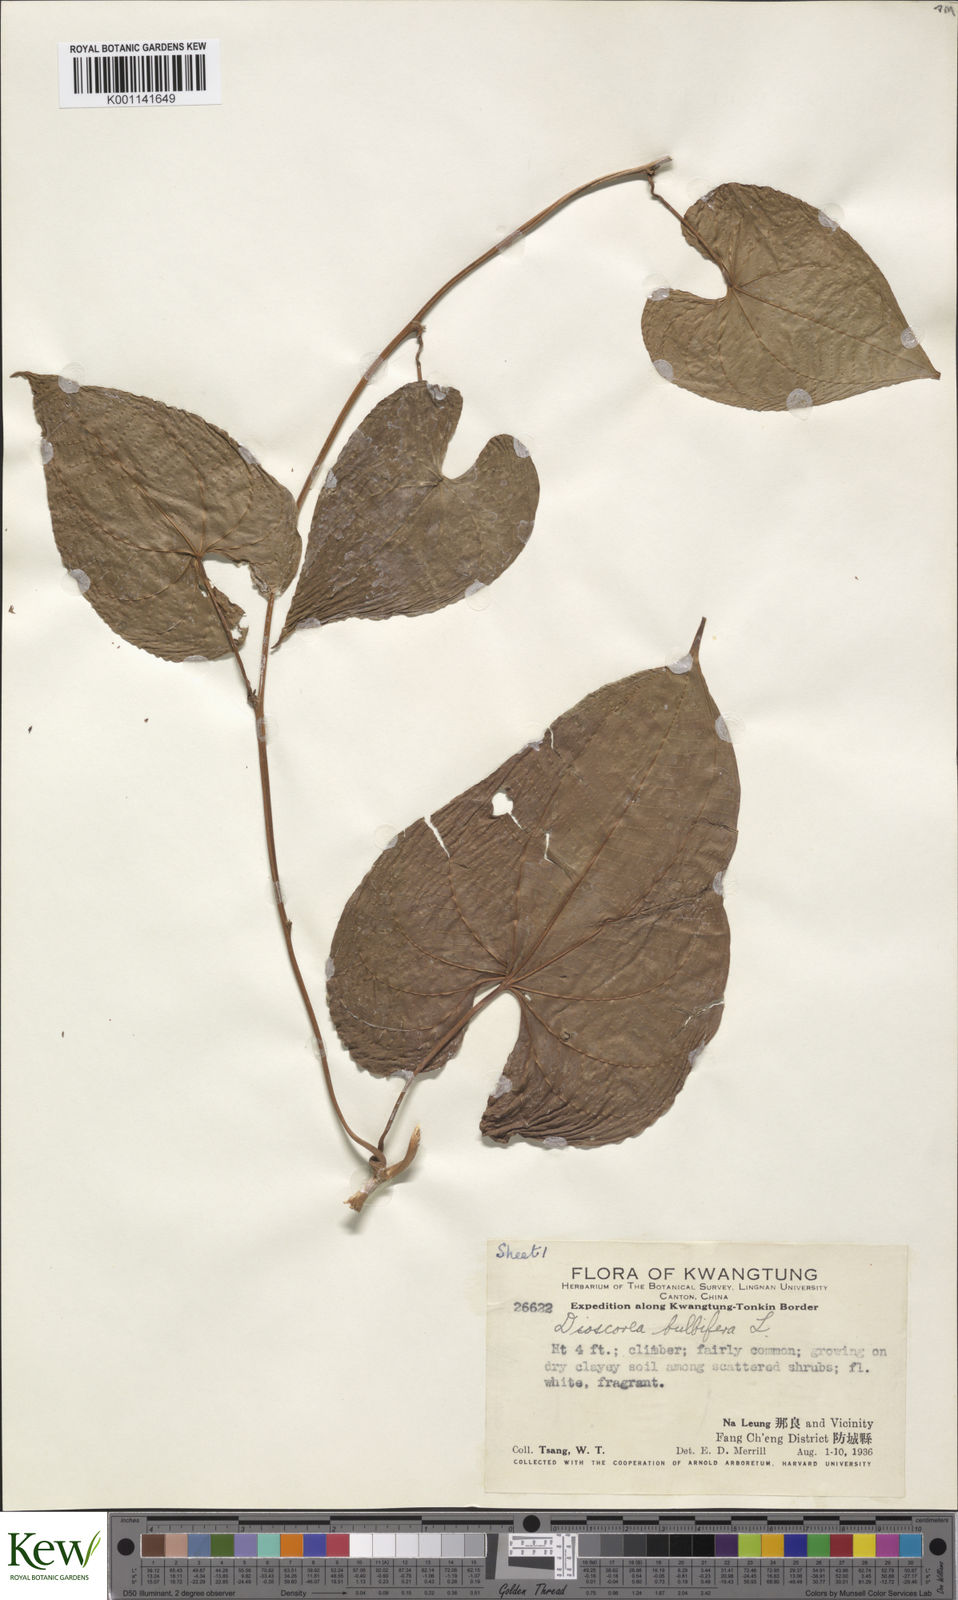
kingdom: Plantae
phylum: Tracheophyta
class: Liliopsida
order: Dioscoreales
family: Dioscoreaceae
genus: Dioscorea
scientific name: Dioscorea bulbifera
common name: Air yam
